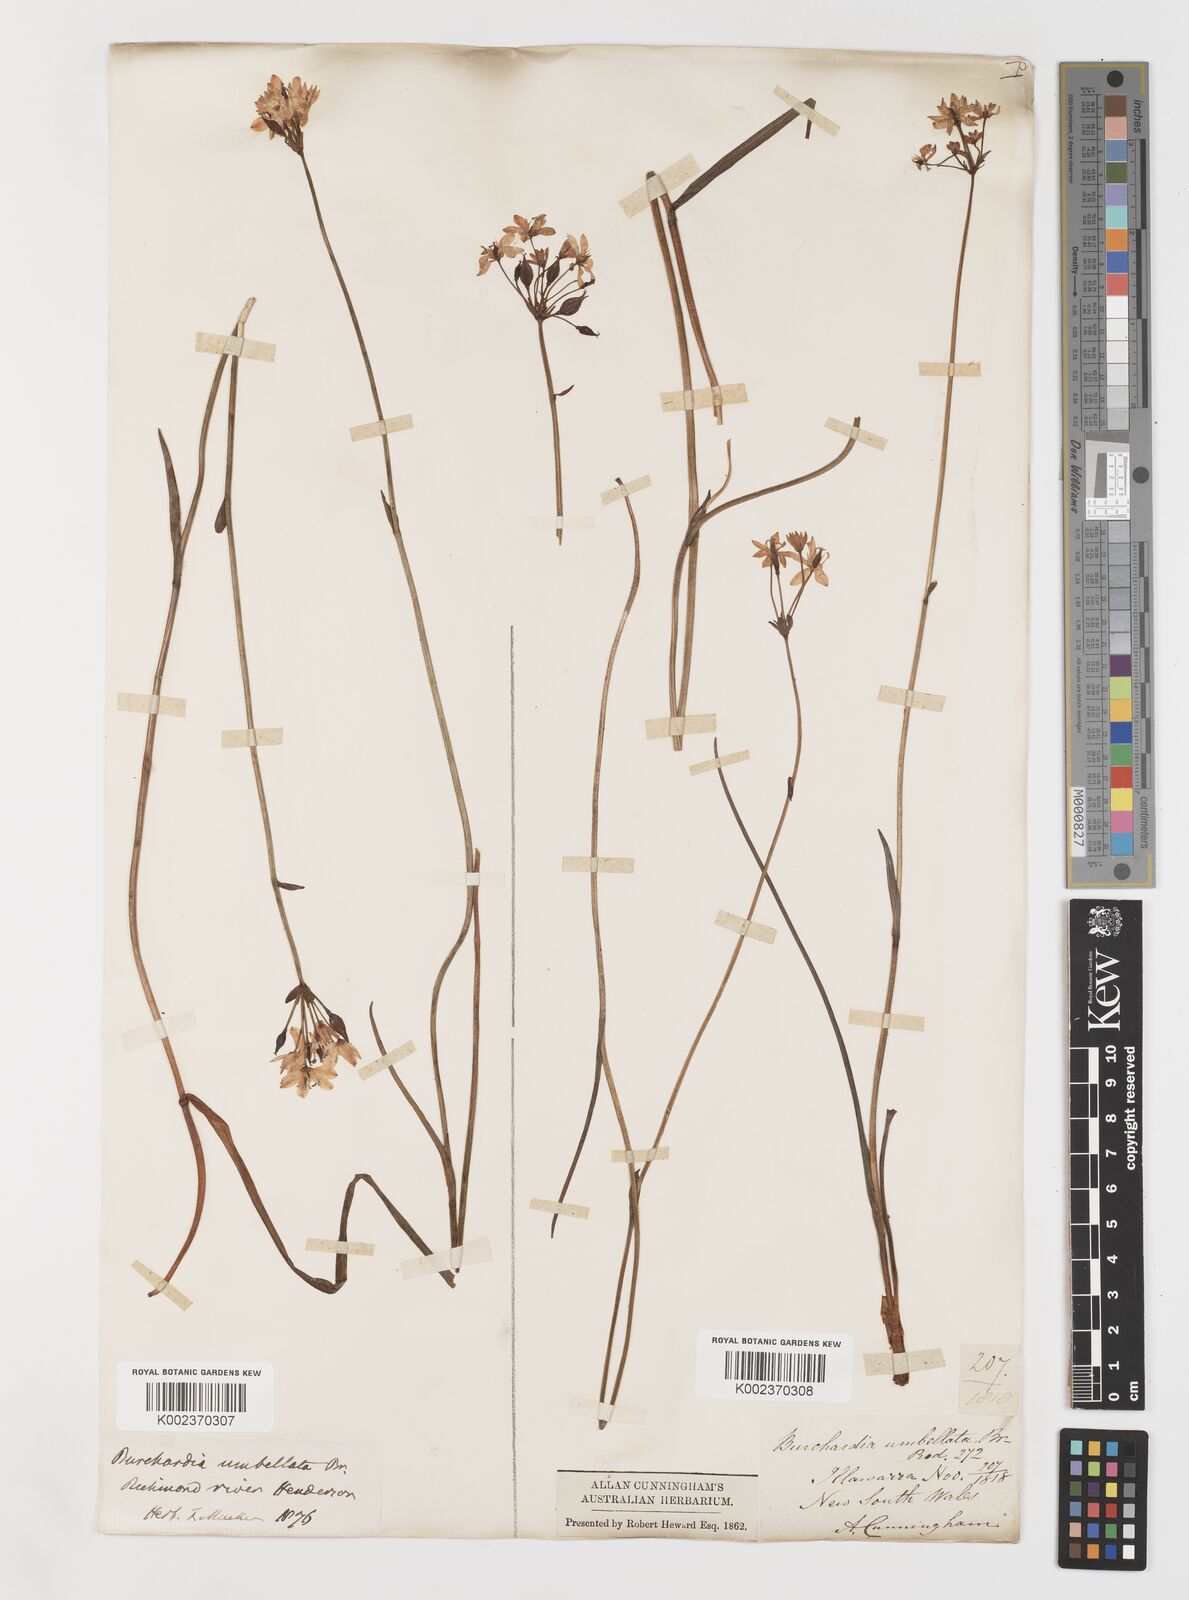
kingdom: Plantae
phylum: Tracheophyta
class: Liliopsida
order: Liliales
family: Colchicaceae
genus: Burchardia
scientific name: Burchardia umbellata
